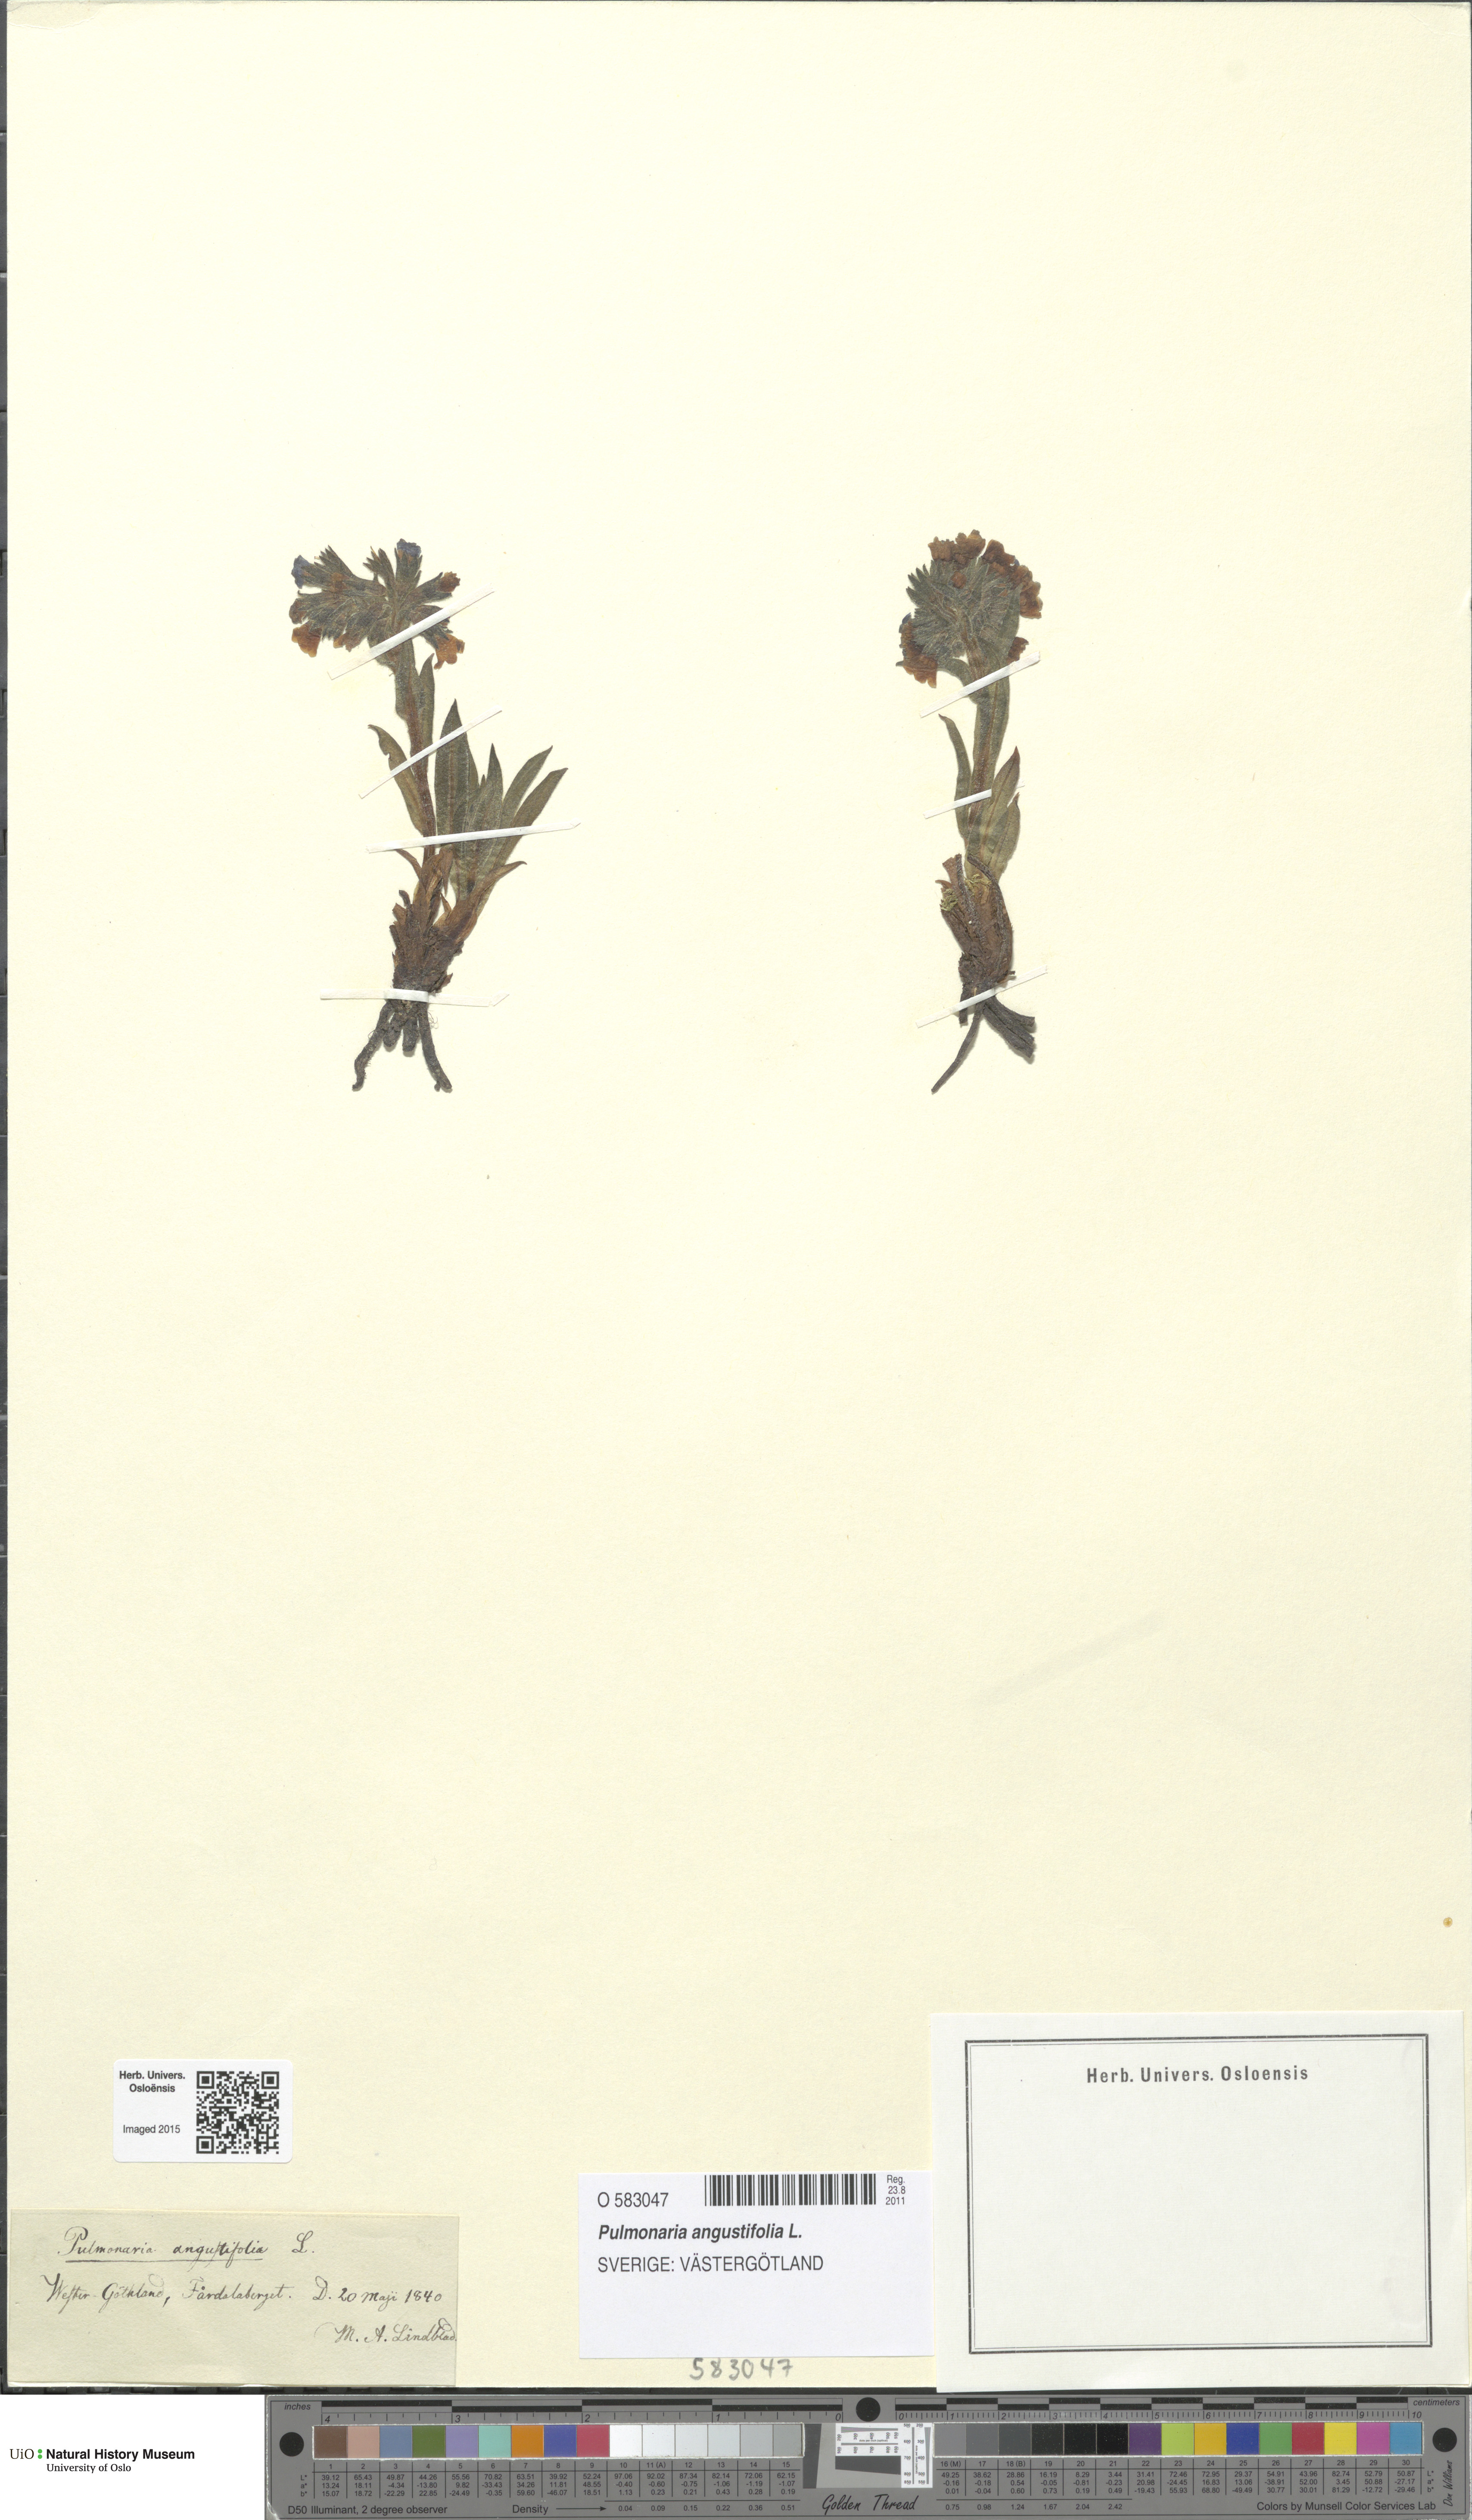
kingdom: Plantae
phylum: Tracheophyta
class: Magnoliopsida
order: Boraginales
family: Boraginaceae
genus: Pulmonaria
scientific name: Pulmonaria angustifolia
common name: Blue cowslip
